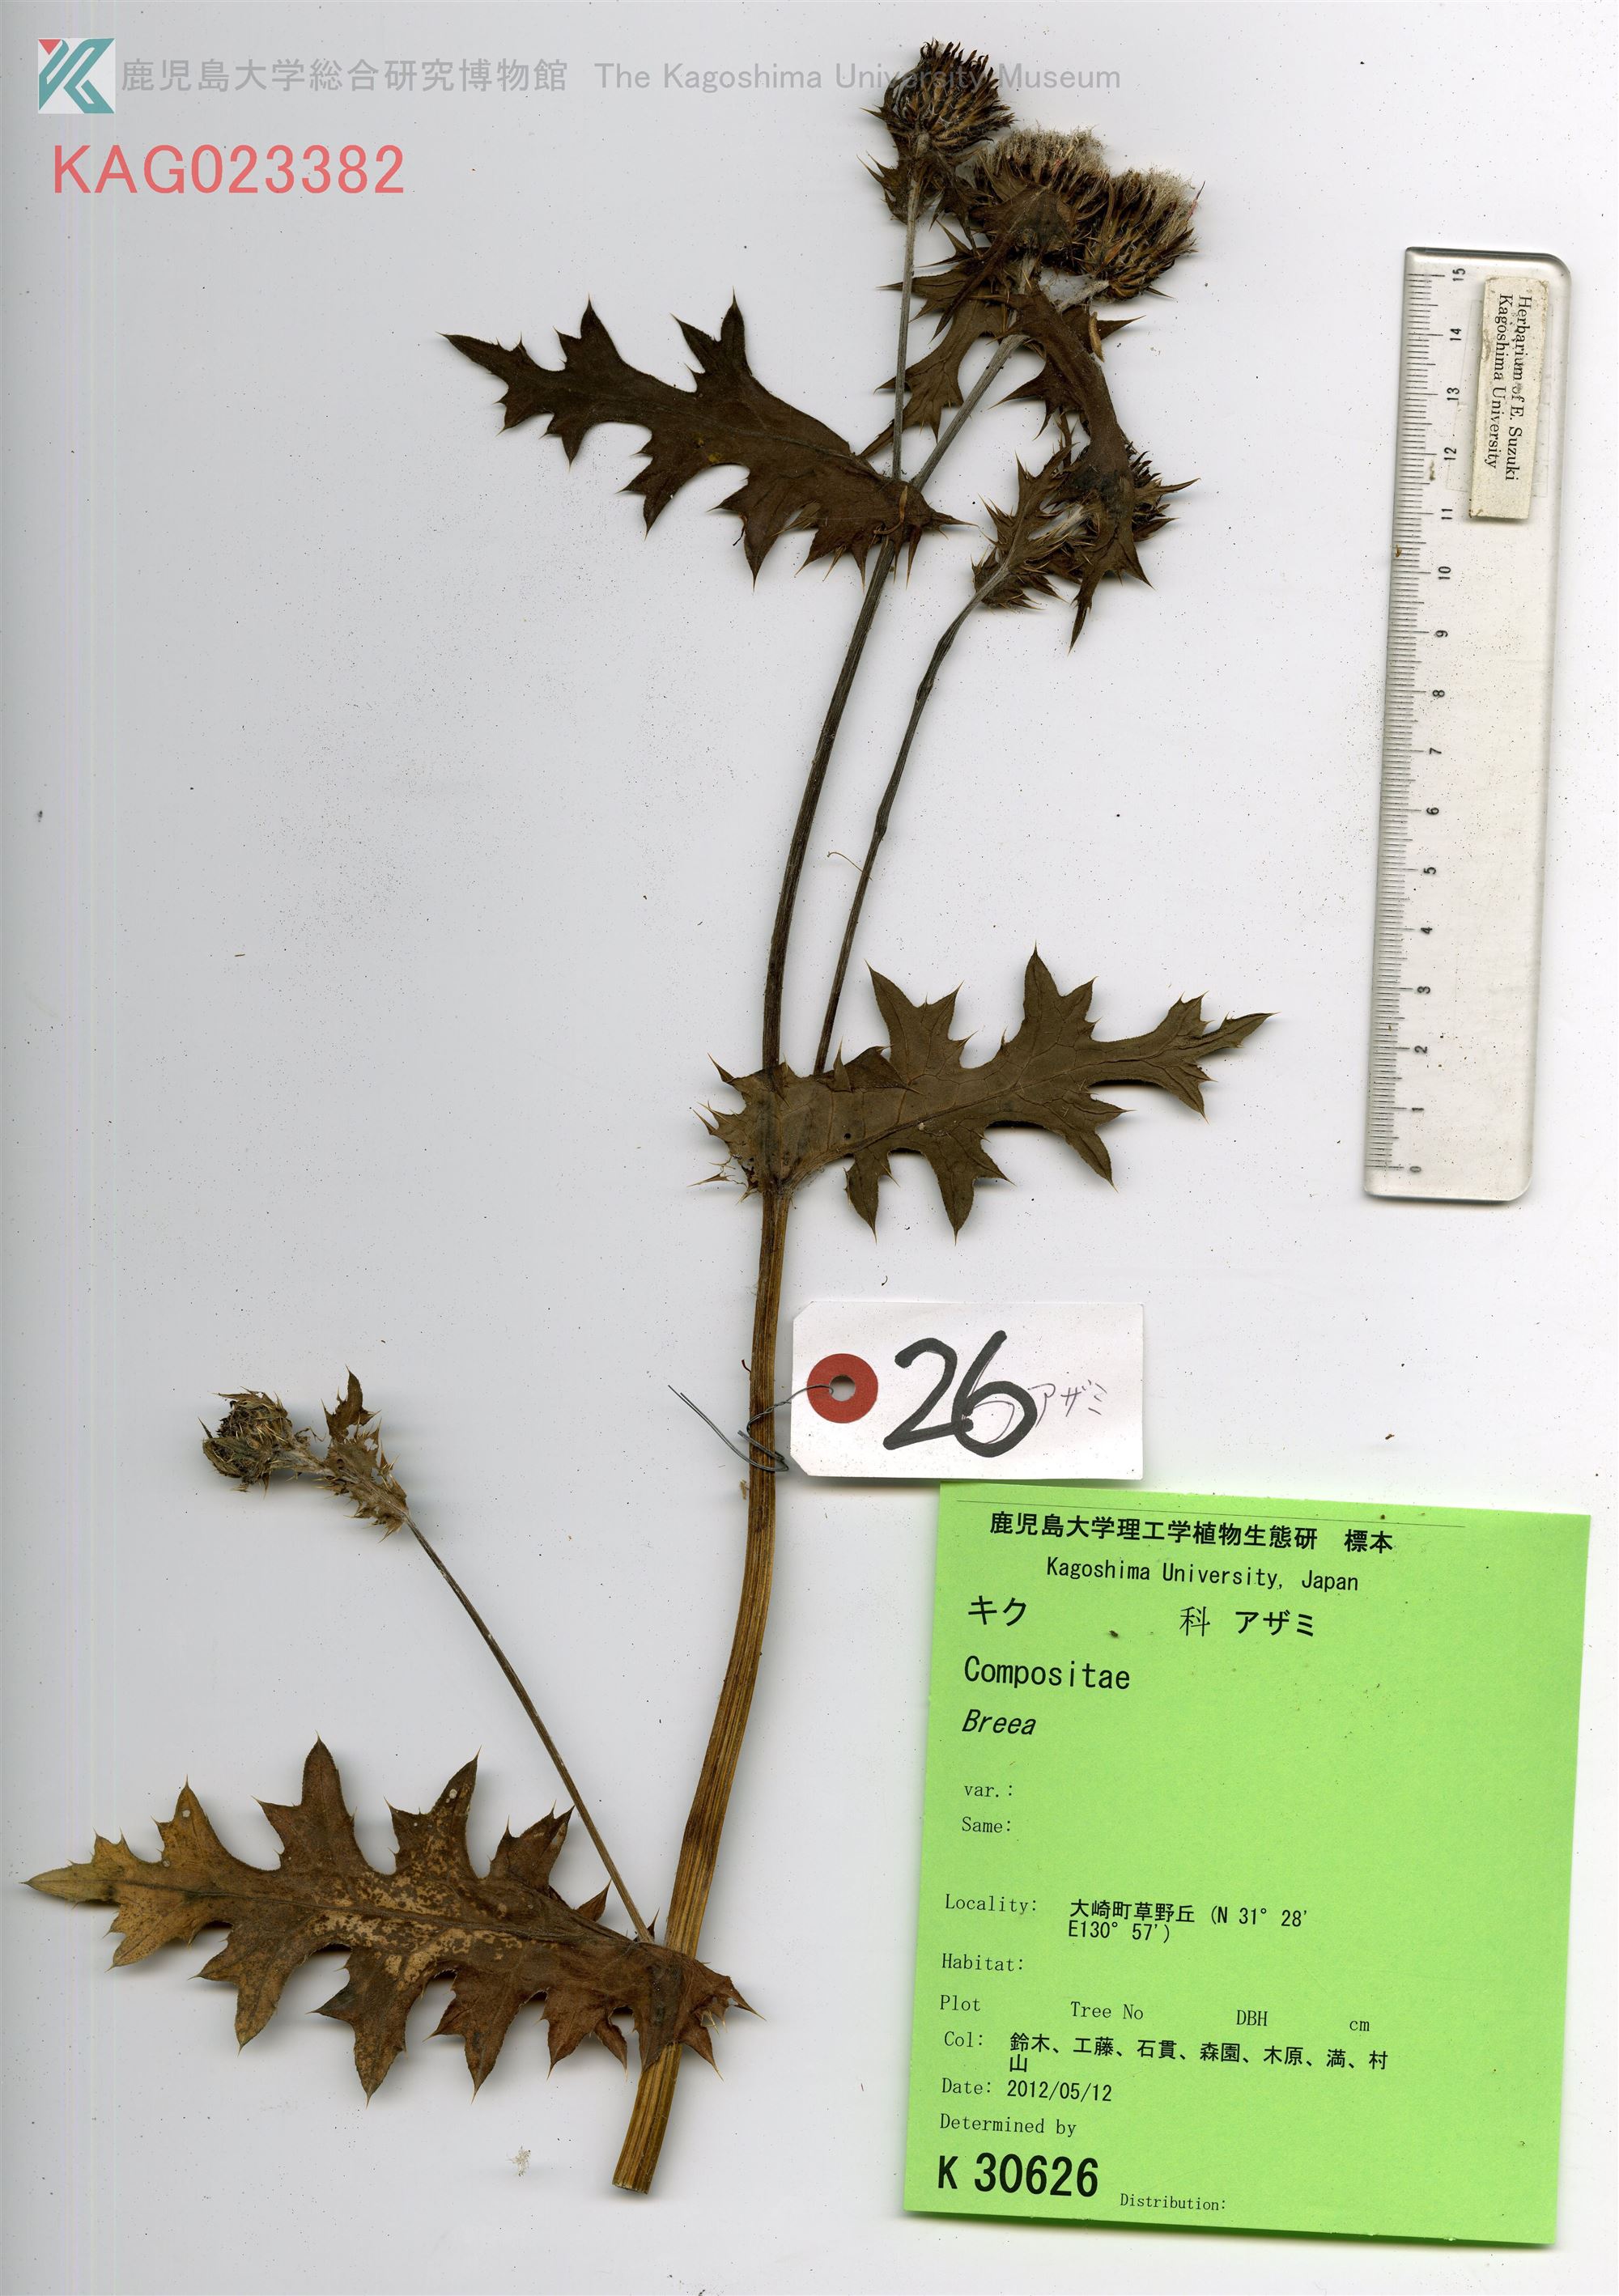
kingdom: Plantae
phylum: Tracheophyta
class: Magnoliopsida
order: Asterales
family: Asteraceae
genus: Cirsium
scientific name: Cirsium japonicum
